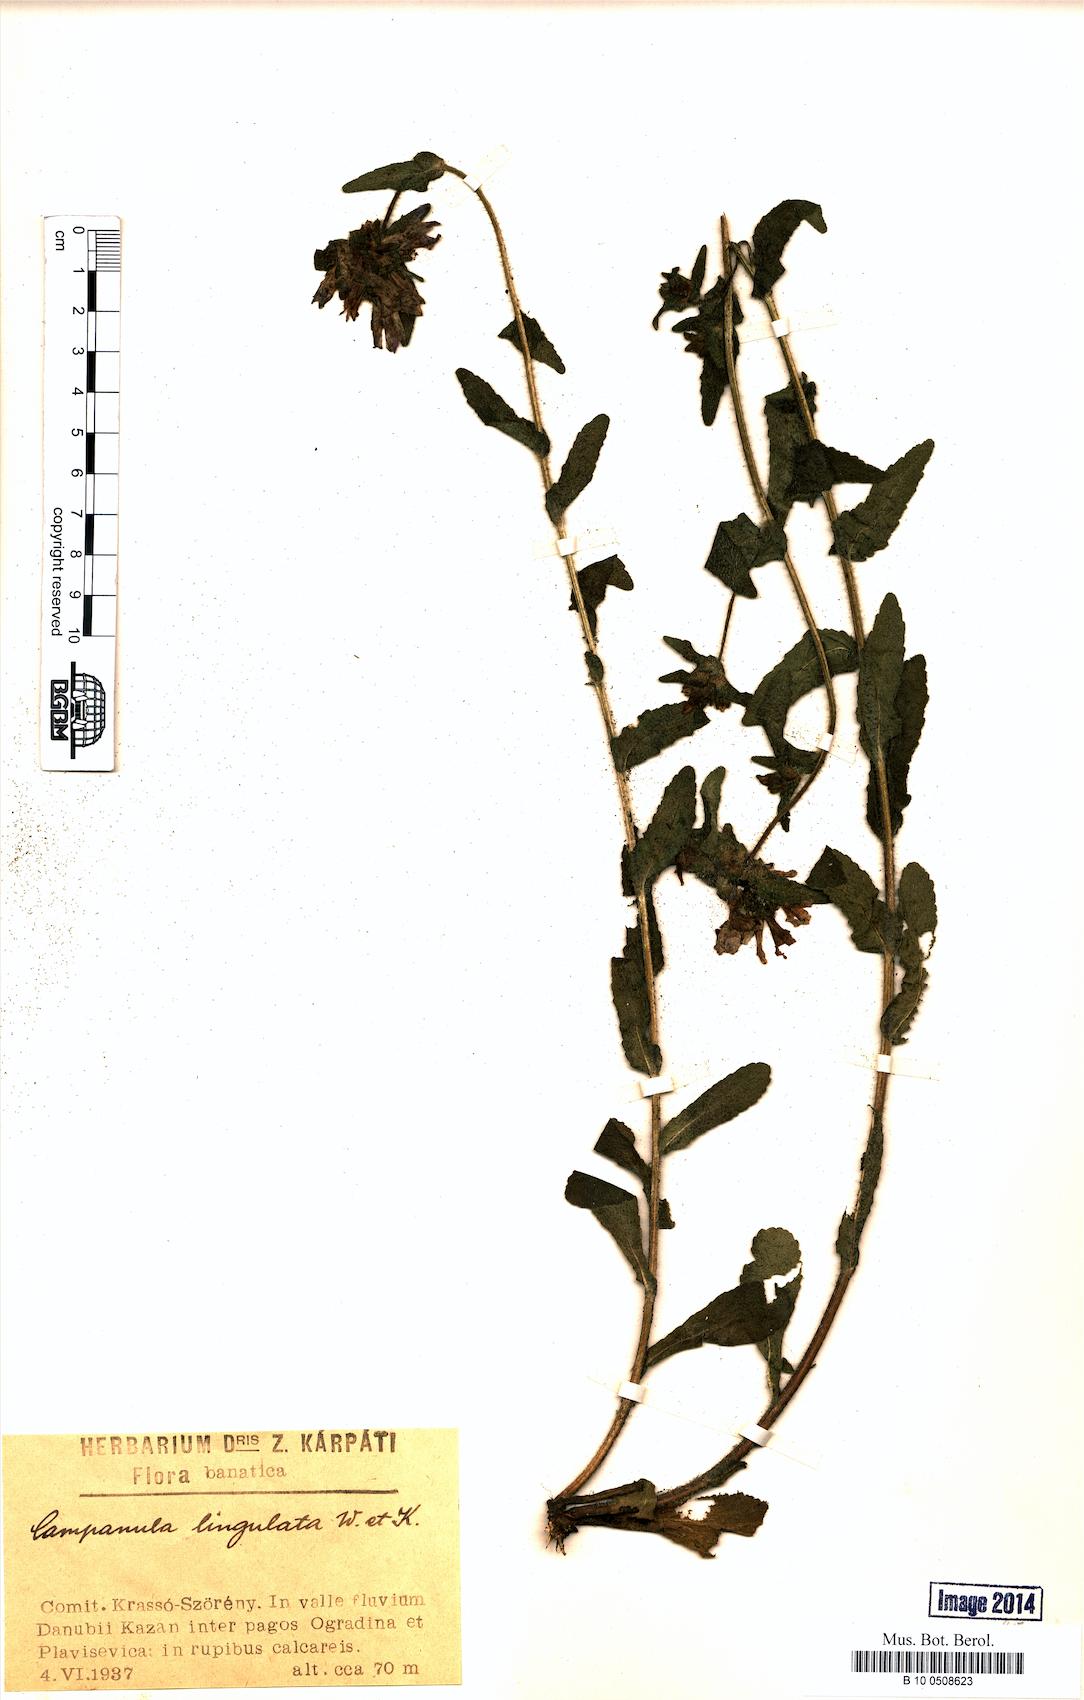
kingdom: Plantae
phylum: Tracheophyta
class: Magnoliopsida
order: Asterales
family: Campanulaceae
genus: Campanula
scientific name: Campanula lingulata
